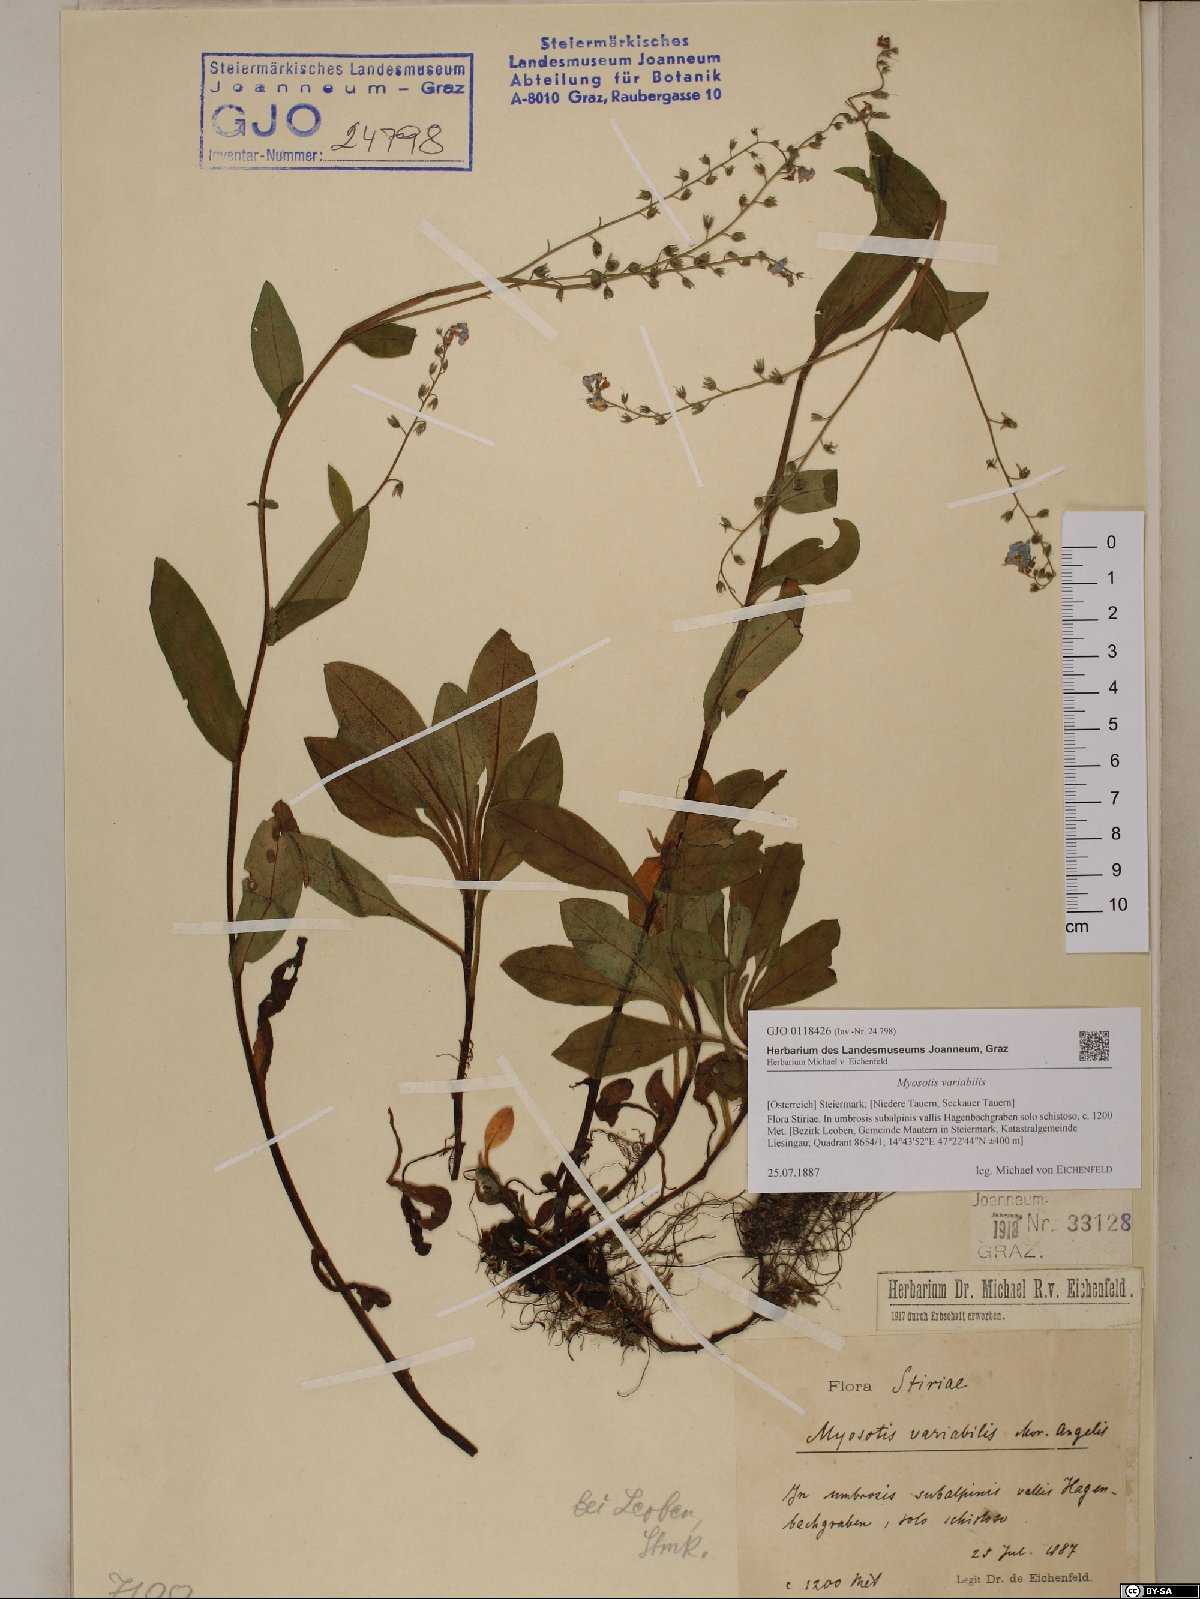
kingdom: Plantae
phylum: Tracheophyta
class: Magnoliopsida
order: Boraginales
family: Boraginaceae
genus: Myosotis
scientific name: Myosotis decumbens
